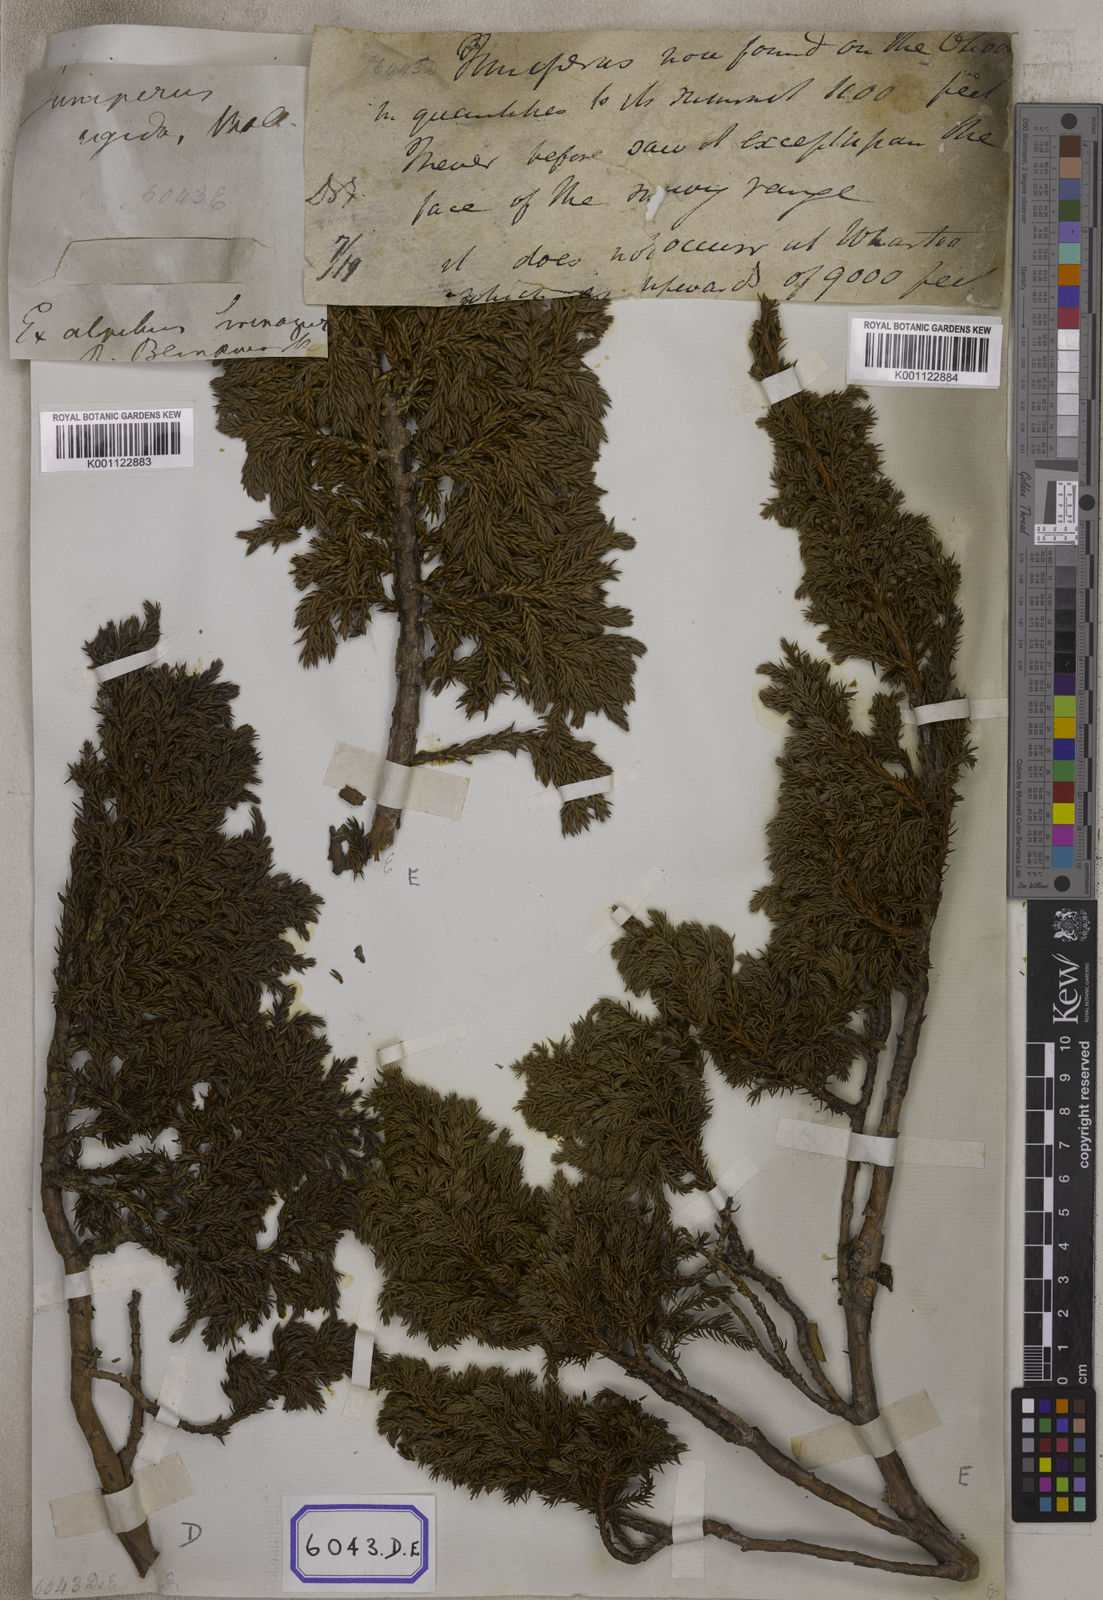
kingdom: Plantae
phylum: Tracheophyta
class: Pinopsida
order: Pinales
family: Cupressaceae
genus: Juniperus
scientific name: Juniperus
